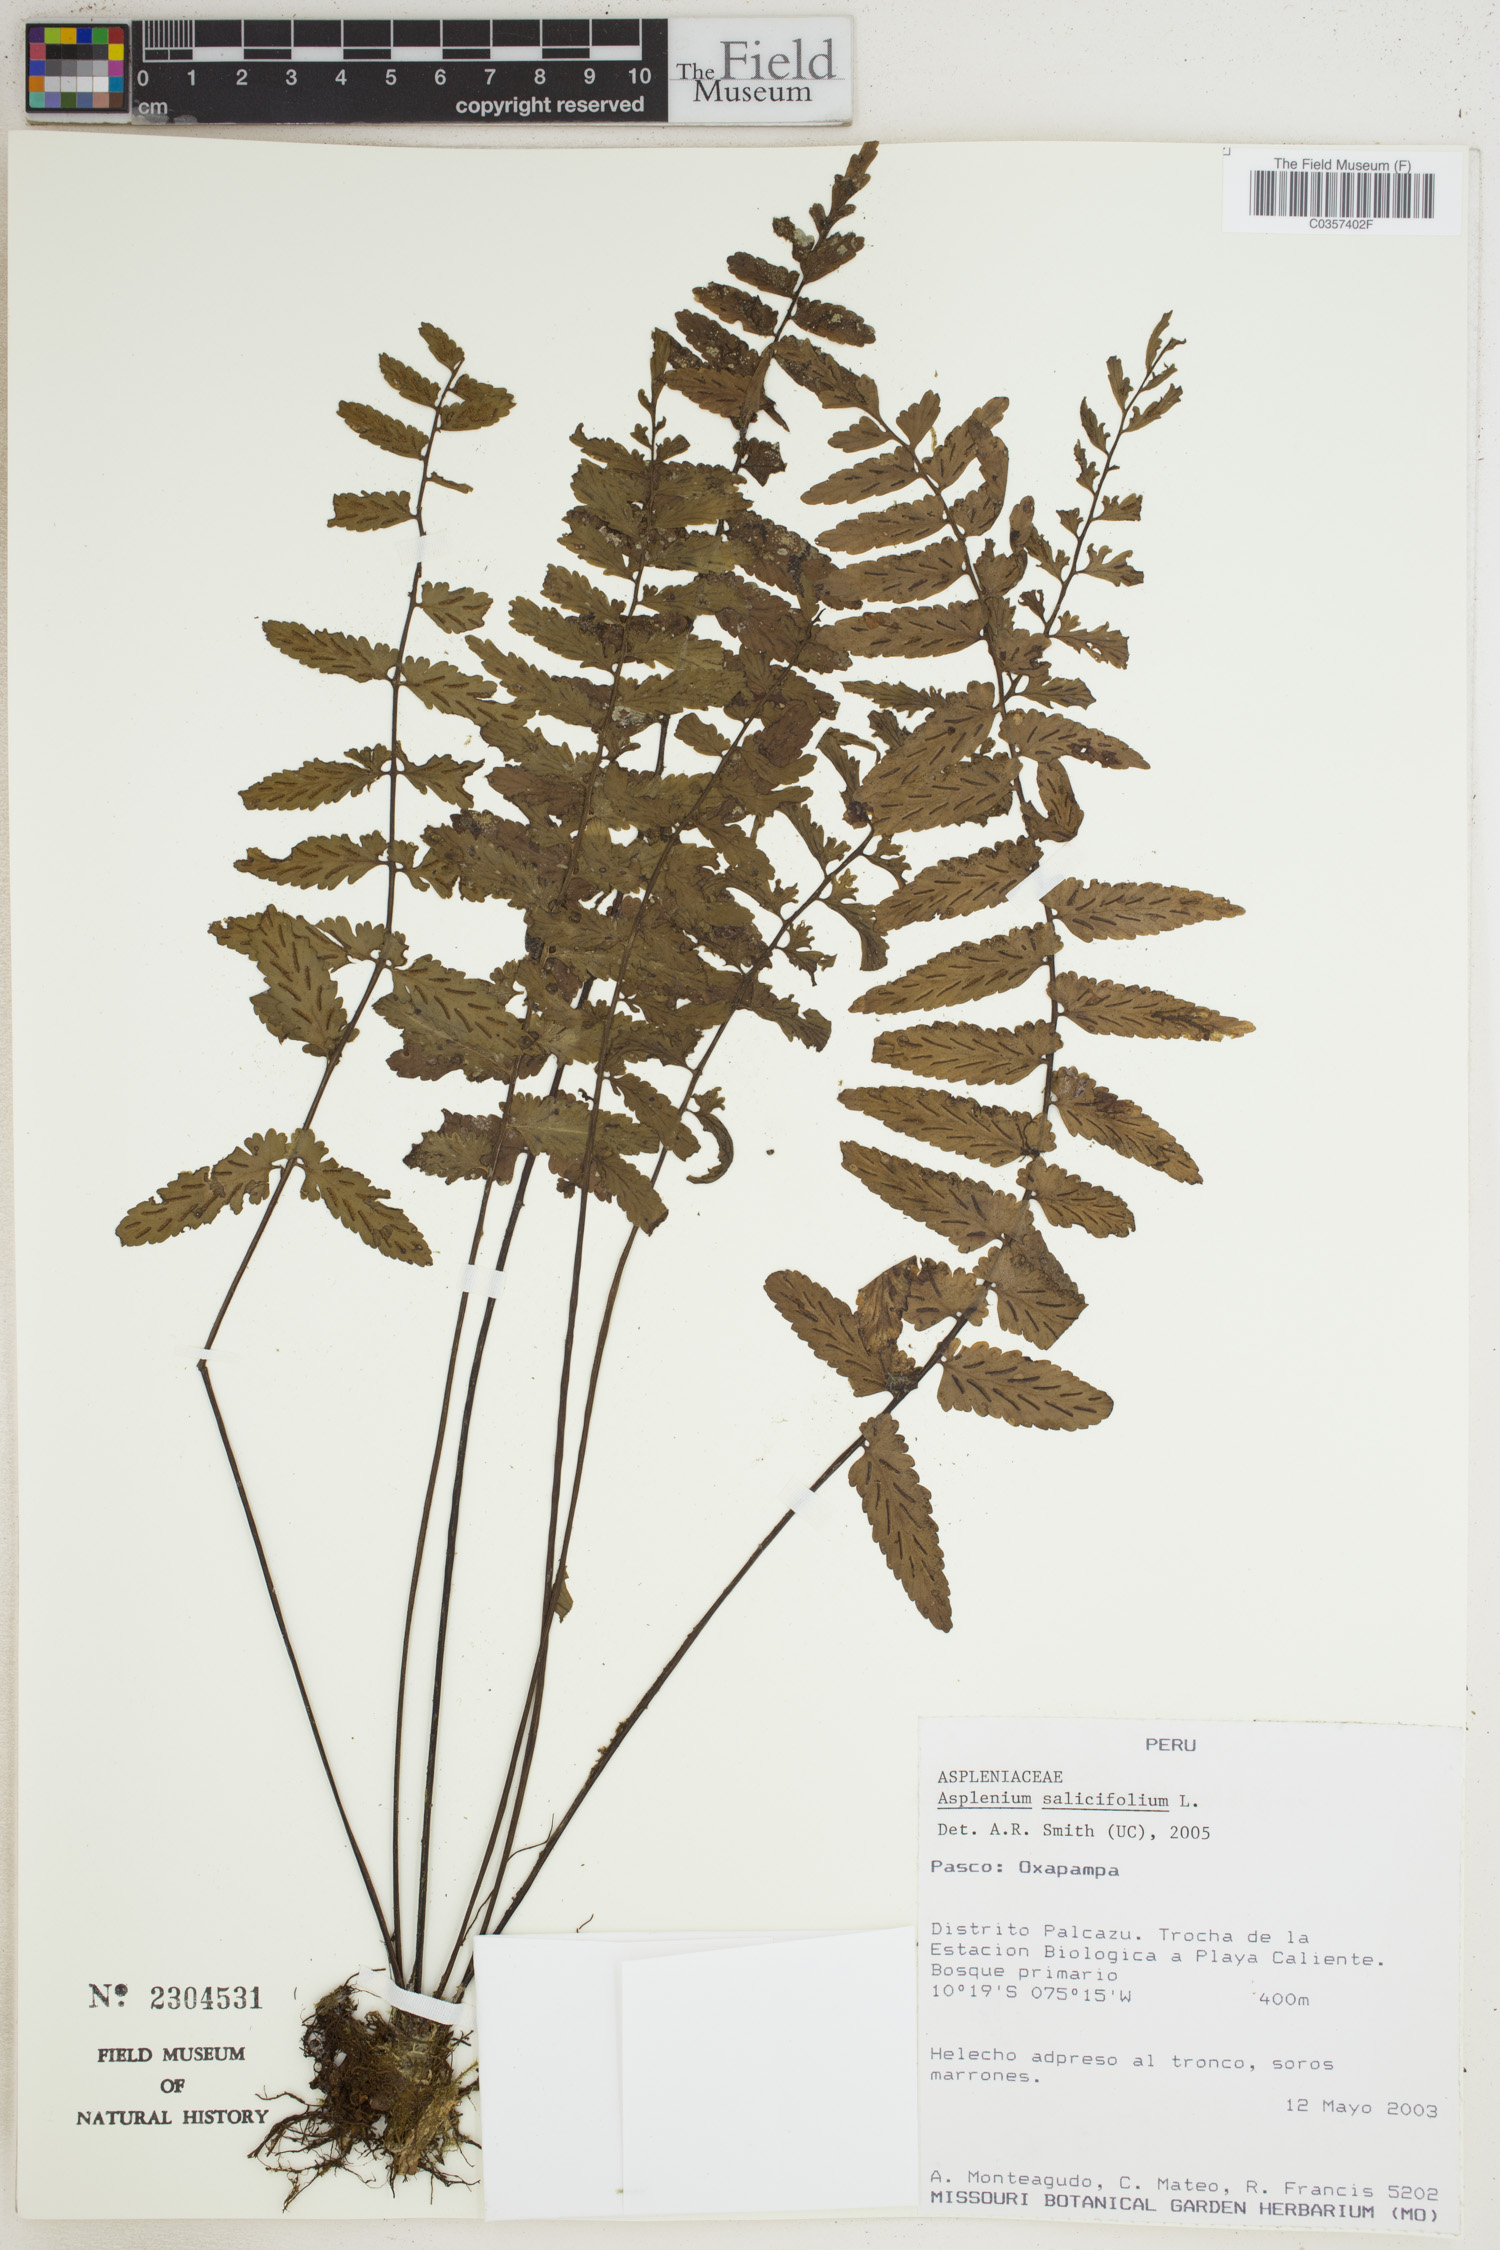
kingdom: Plantae
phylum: Tracheophyta
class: Polypodiopsida
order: Polypodiales
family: Aspleniaceae
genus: Asplenium
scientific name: Asplenium salicifolium
